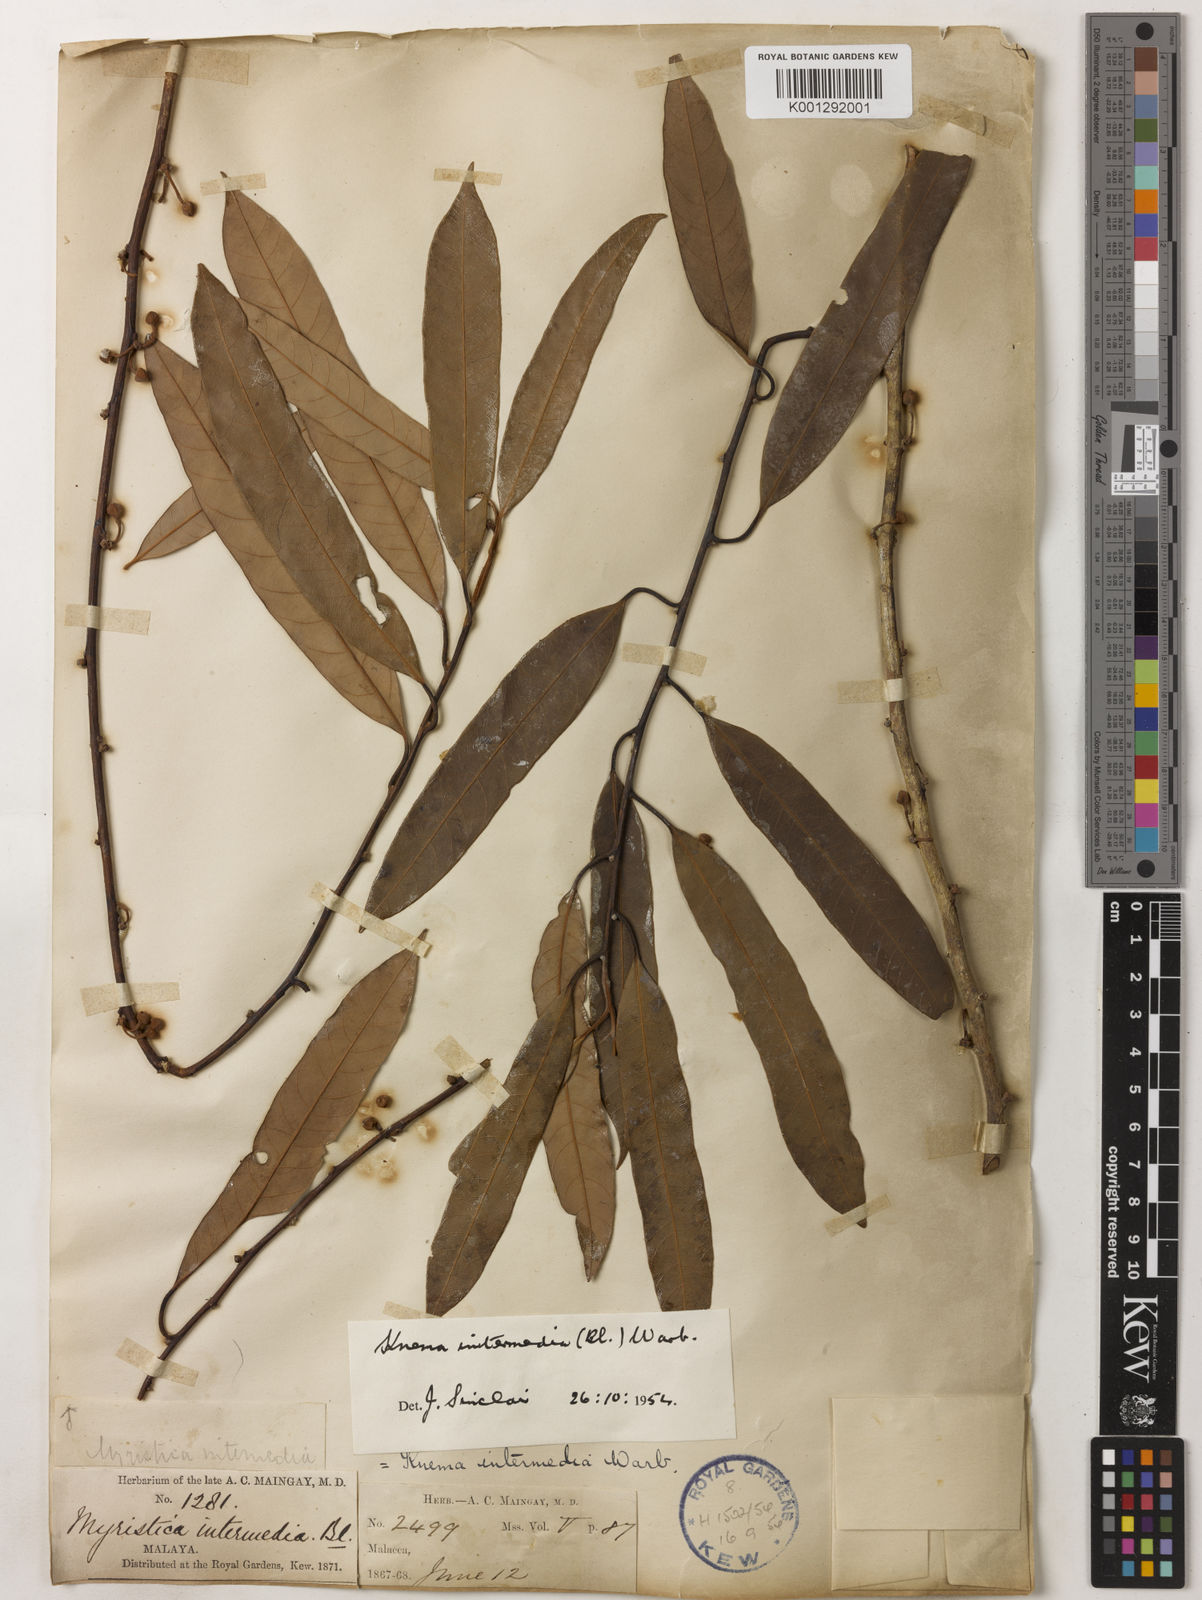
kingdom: Plantae
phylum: Tracheophyta
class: Magnoliopsida
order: Magnoliales
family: Myristicaceae
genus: Knema
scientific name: Knema intermedia
